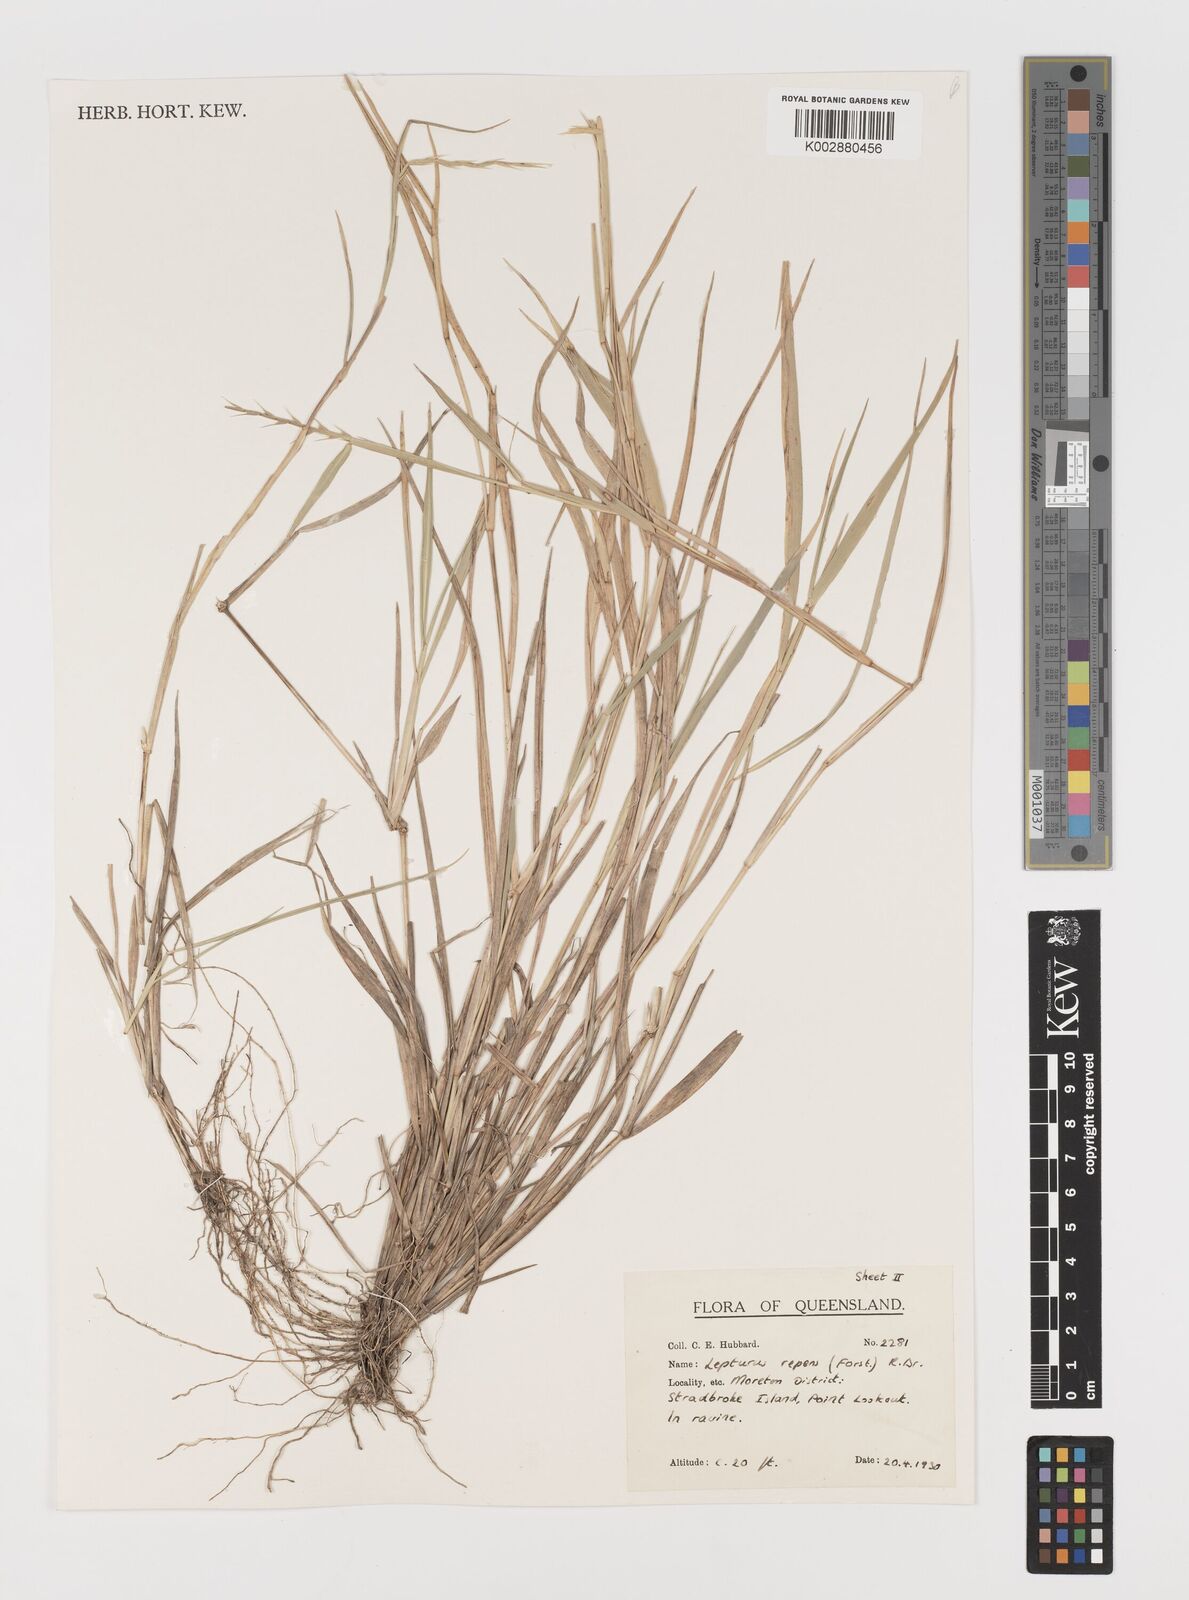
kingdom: Plantae
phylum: Tracheophyta
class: Liliopsida
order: Poales
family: Poaceae
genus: Lepturus
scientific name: Lepturus repens
